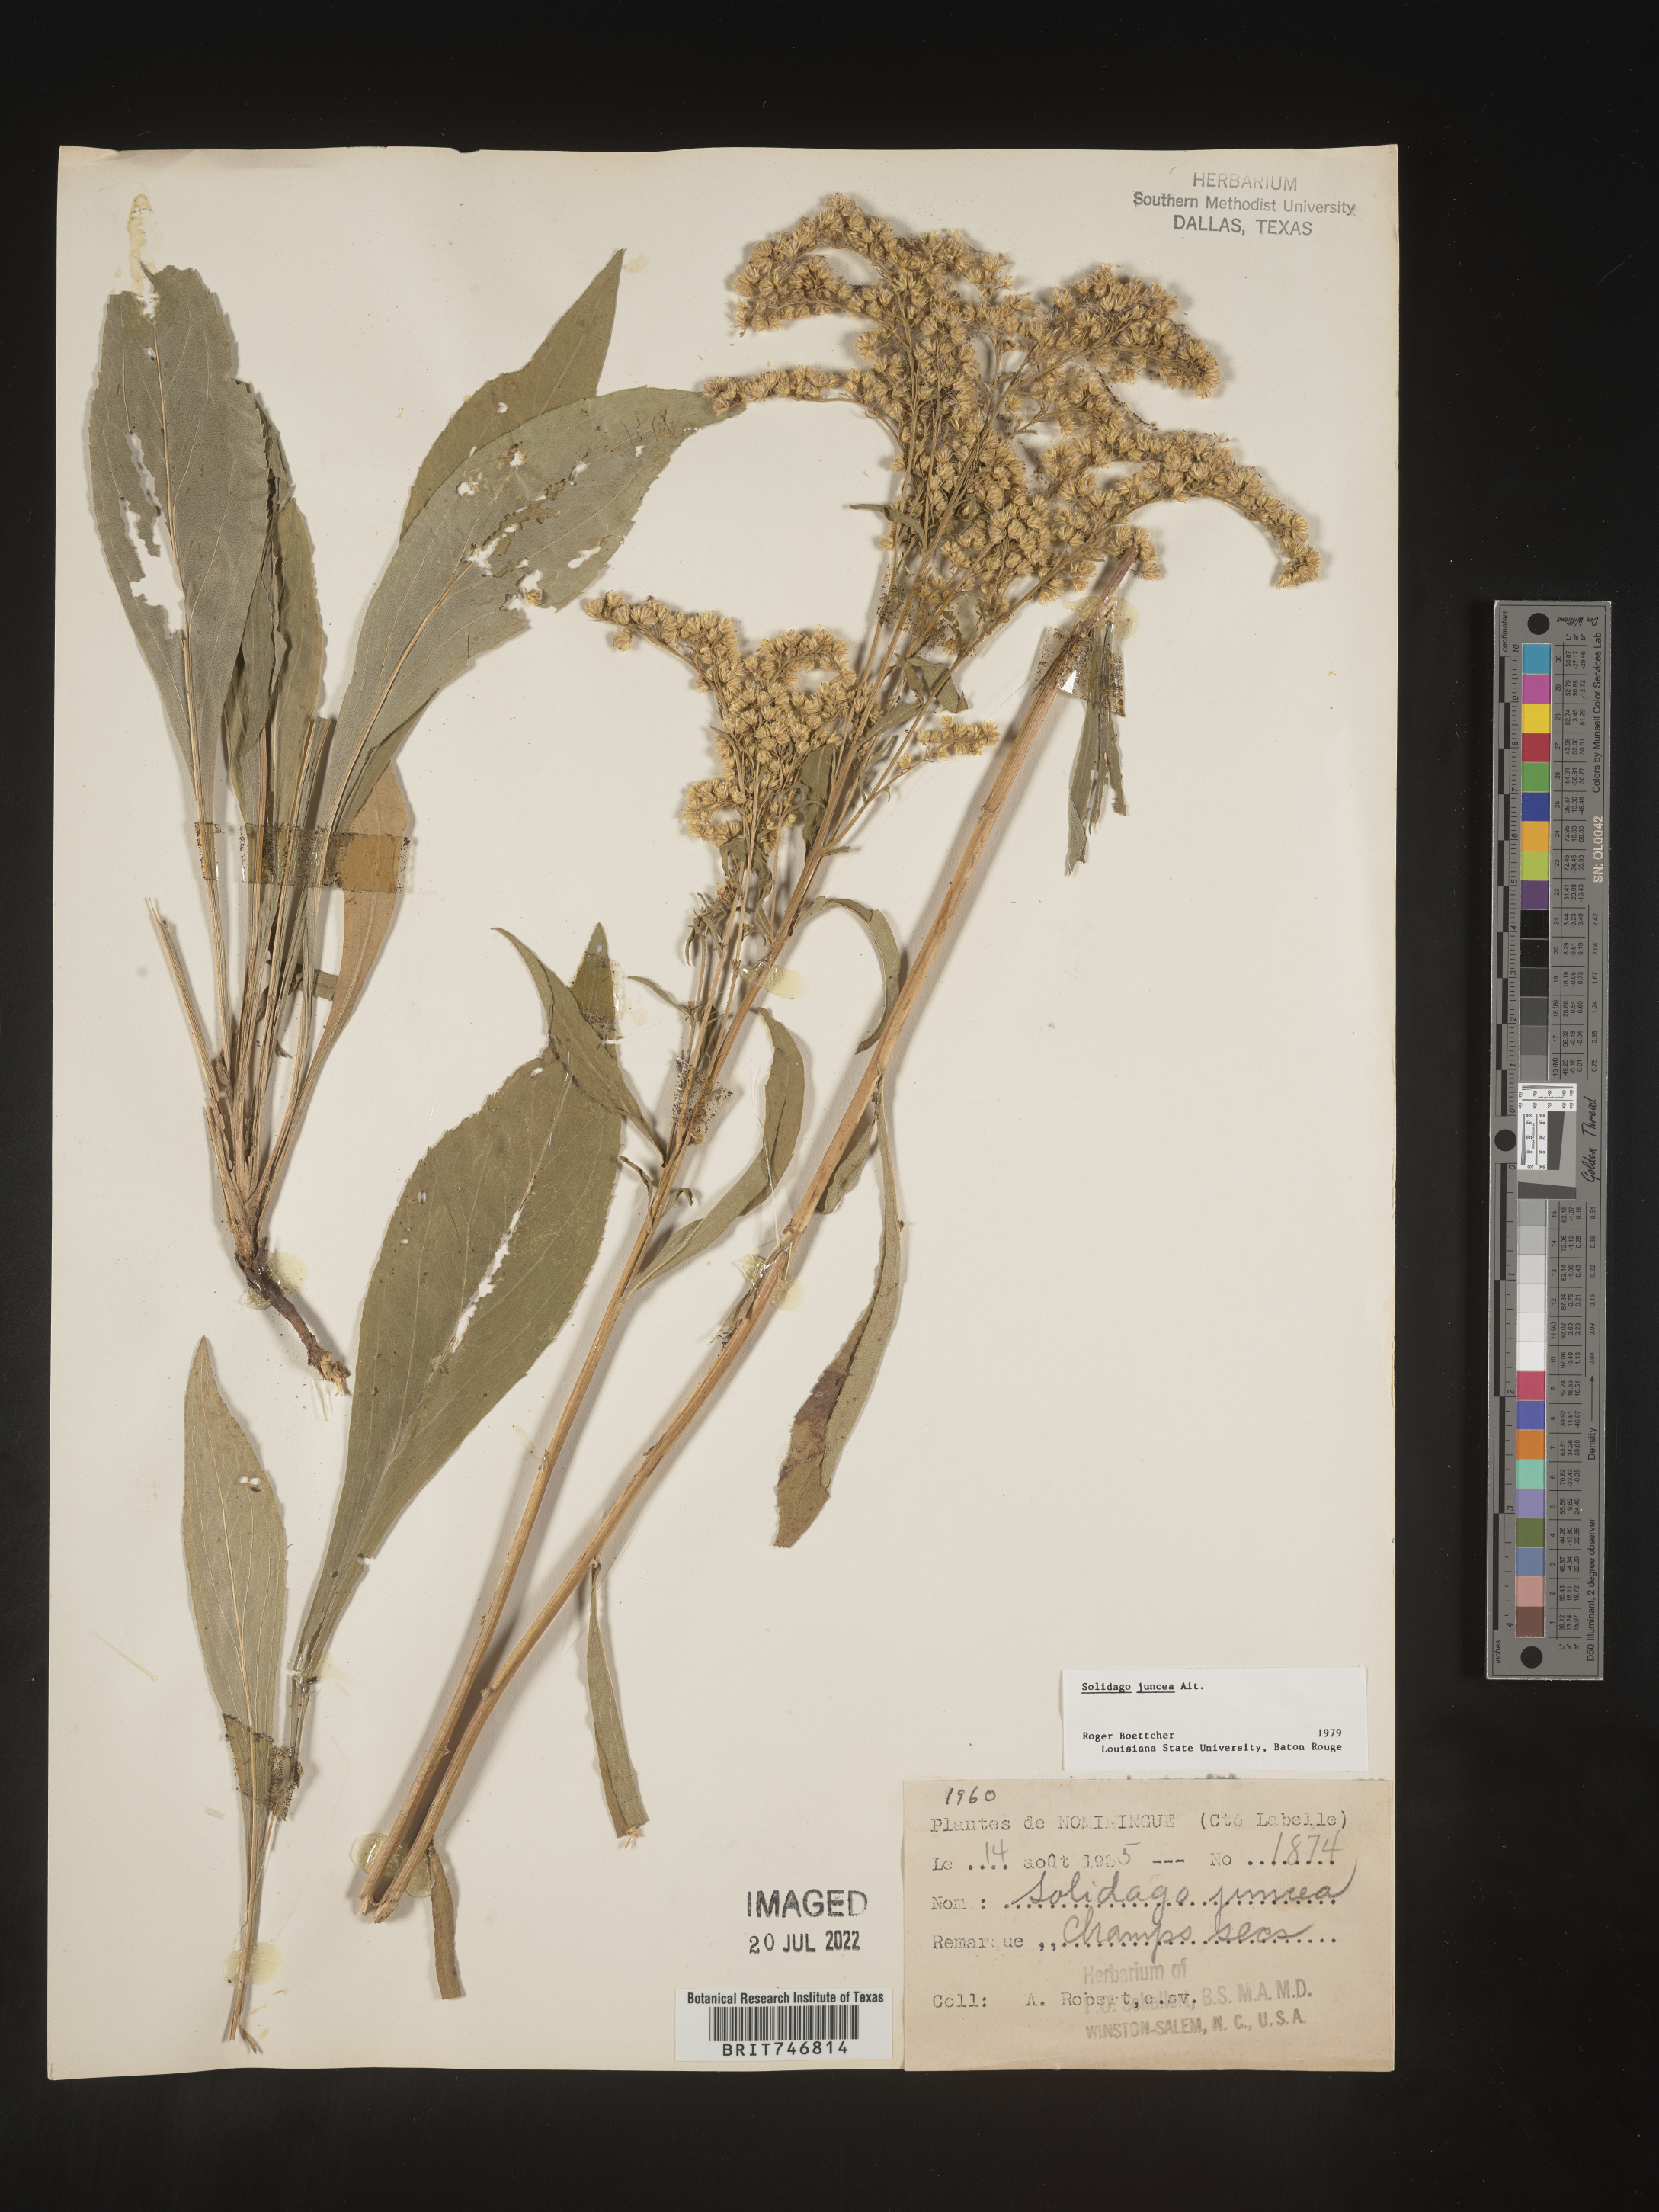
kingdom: Plantae
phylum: Tracheophyta
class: Magnoliopsida
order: Asterales
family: Asteraceae
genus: Solidago
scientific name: Solidago juncea
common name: Early goldenrod
